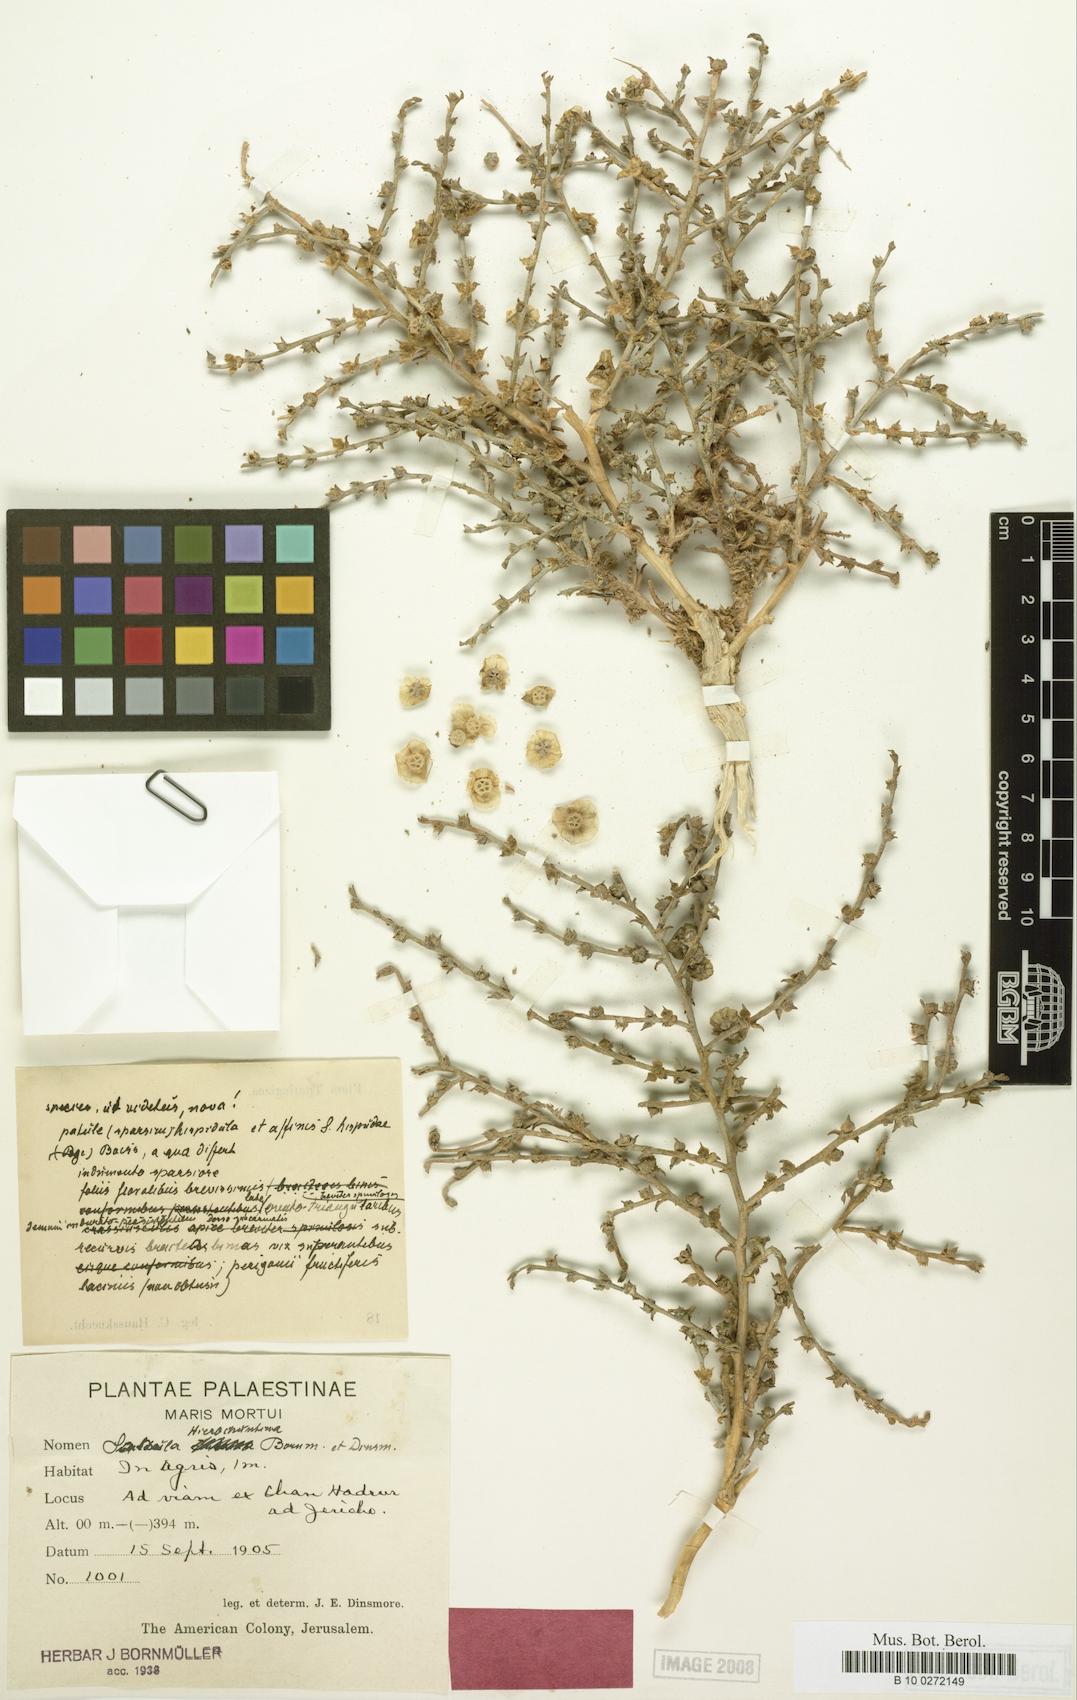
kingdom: Plantae
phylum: Tracheophyta
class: Magnoliopsida
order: Caryophyllales
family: Amaranthaceae
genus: Halothamnus
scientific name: Halothamnus hierochunticus
